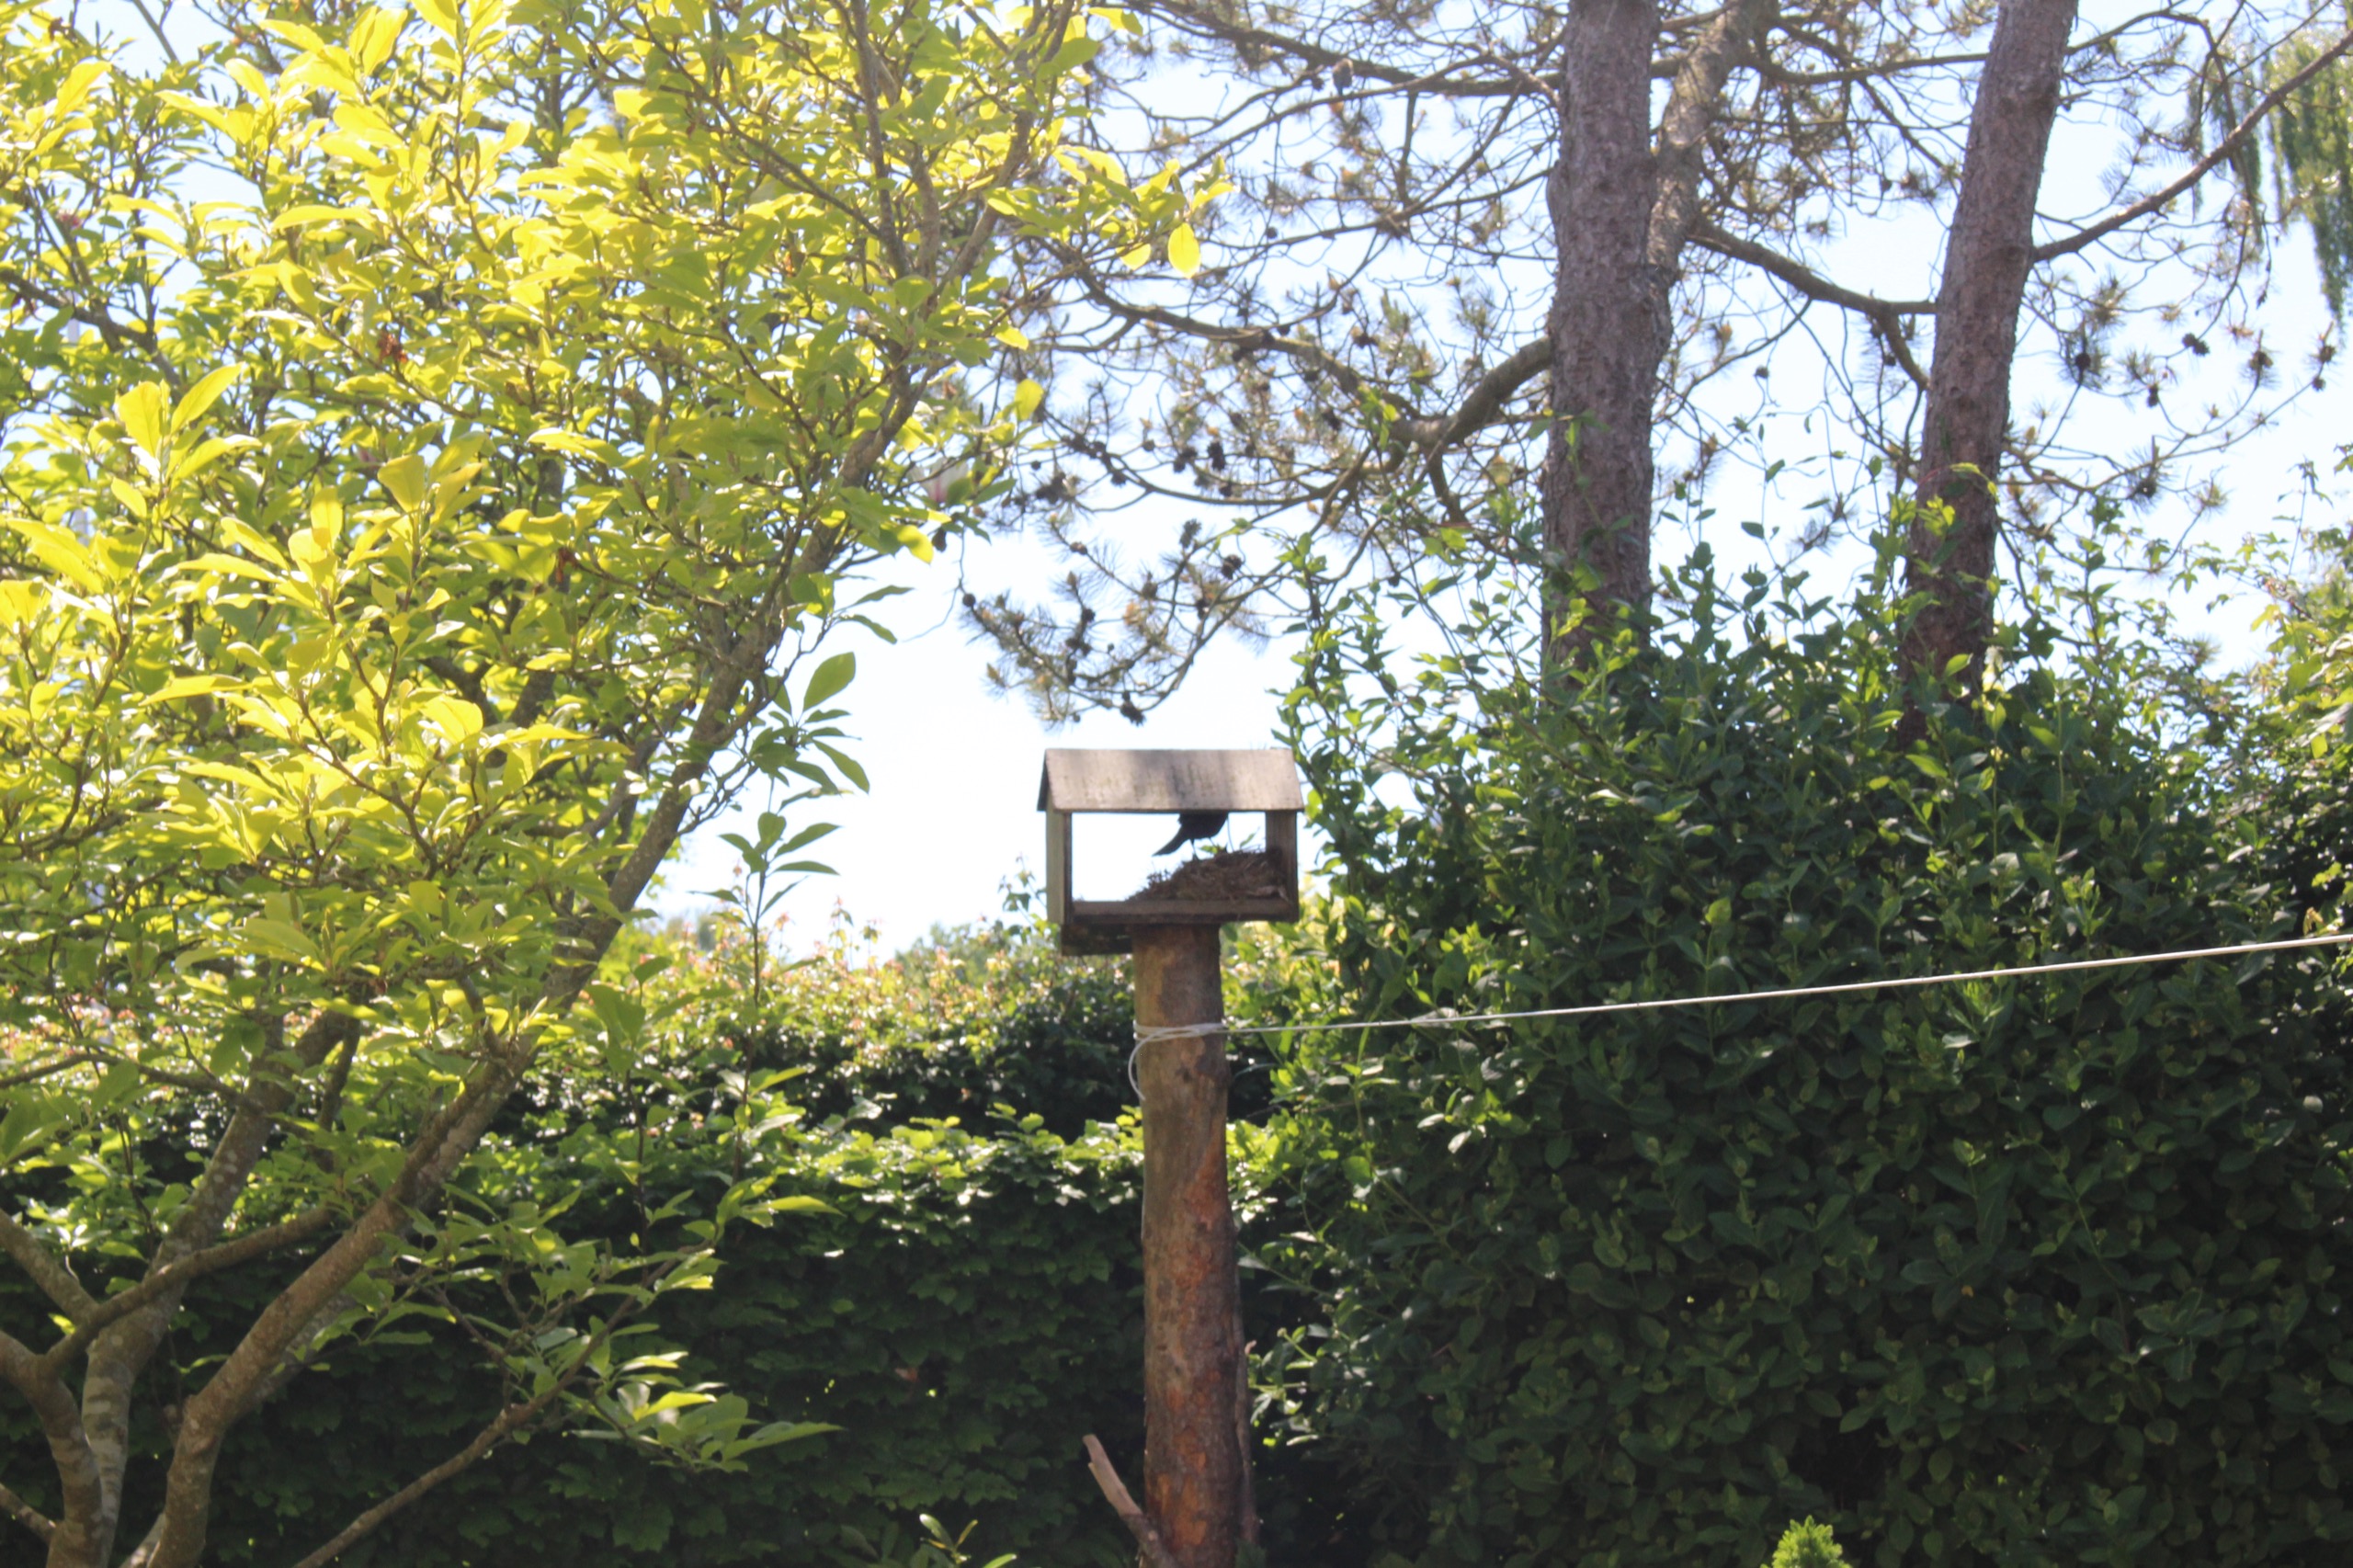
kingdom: Animalia
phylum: Chordata
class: Aves
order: Passeriformes
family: Turdidae
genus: Turdus
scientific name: Turdus merula
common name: Solsort
